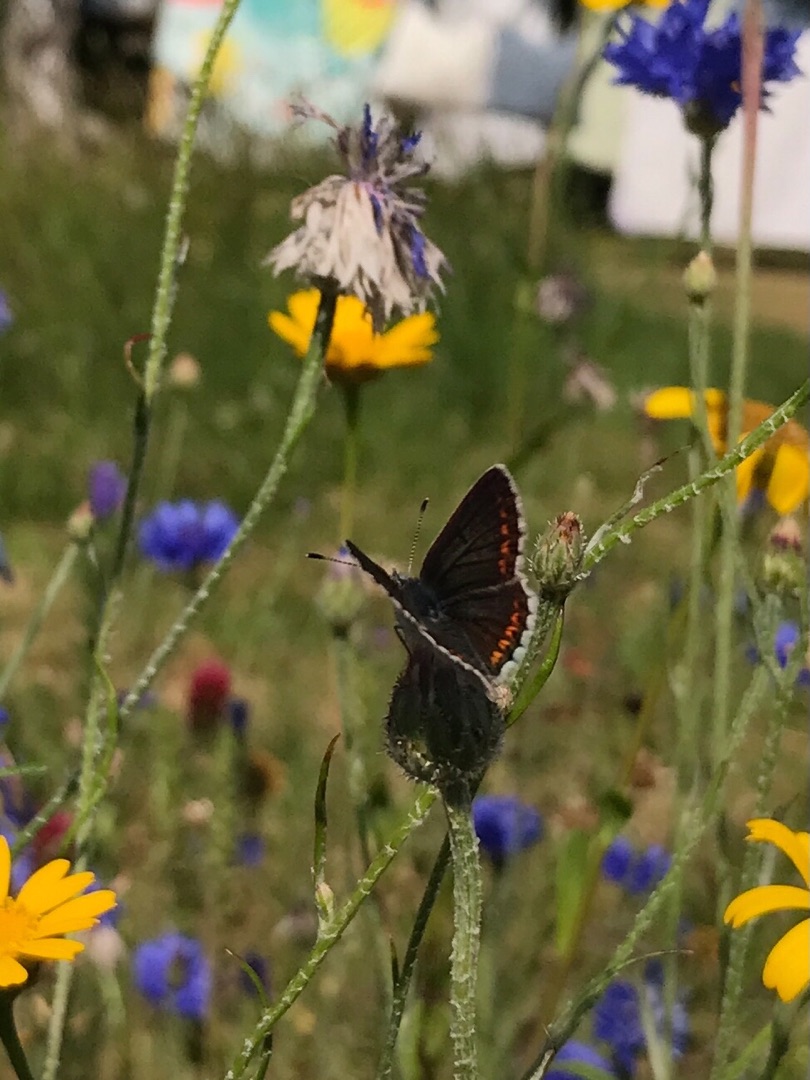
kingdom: Animalia
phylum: Arthropoda
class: Insecta
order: Lepidoptera
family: Lycaenidae
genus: Aricia
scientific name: Aricia agestis
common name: Rødplettet blåfugl
